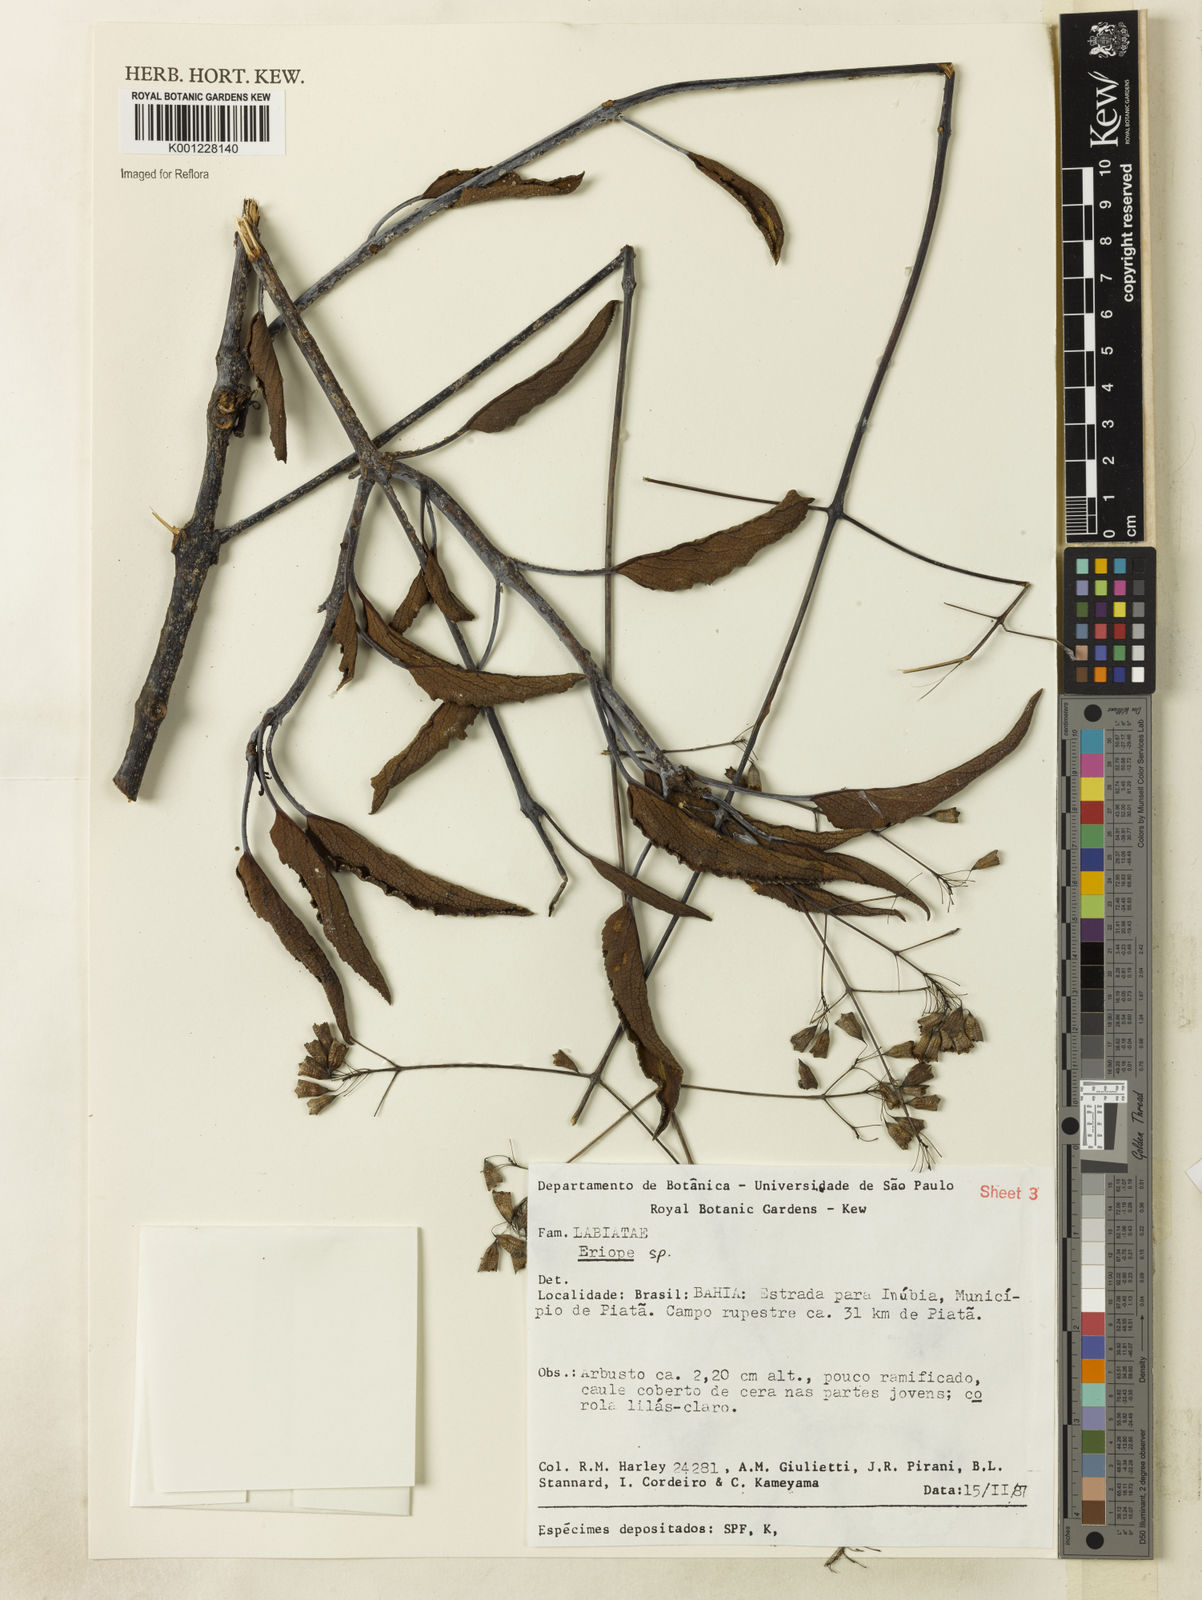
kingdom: Plantae
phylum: Tracheophyta
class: Magnoliopsida
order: Lamiales
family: Lamiaceae
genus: Eriope
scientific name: Eriope
